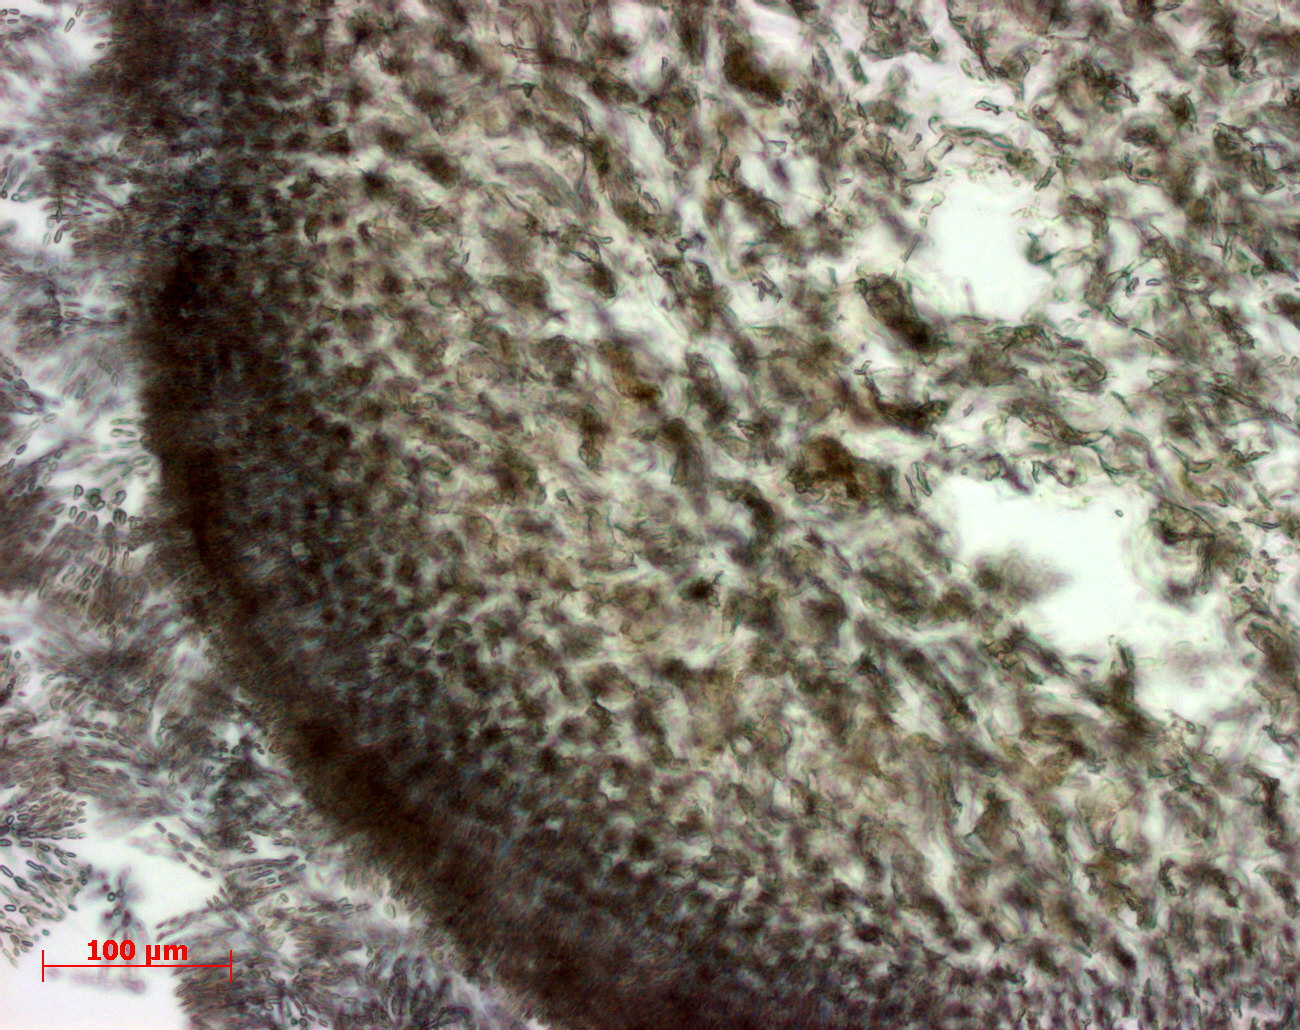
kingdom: Plantae
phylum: Rhodophyta
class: Florideophyceae
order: Gigartinales
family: Phyllophoraceae
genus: Gymnogongrus
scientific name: Gymnogongrus torulosus
